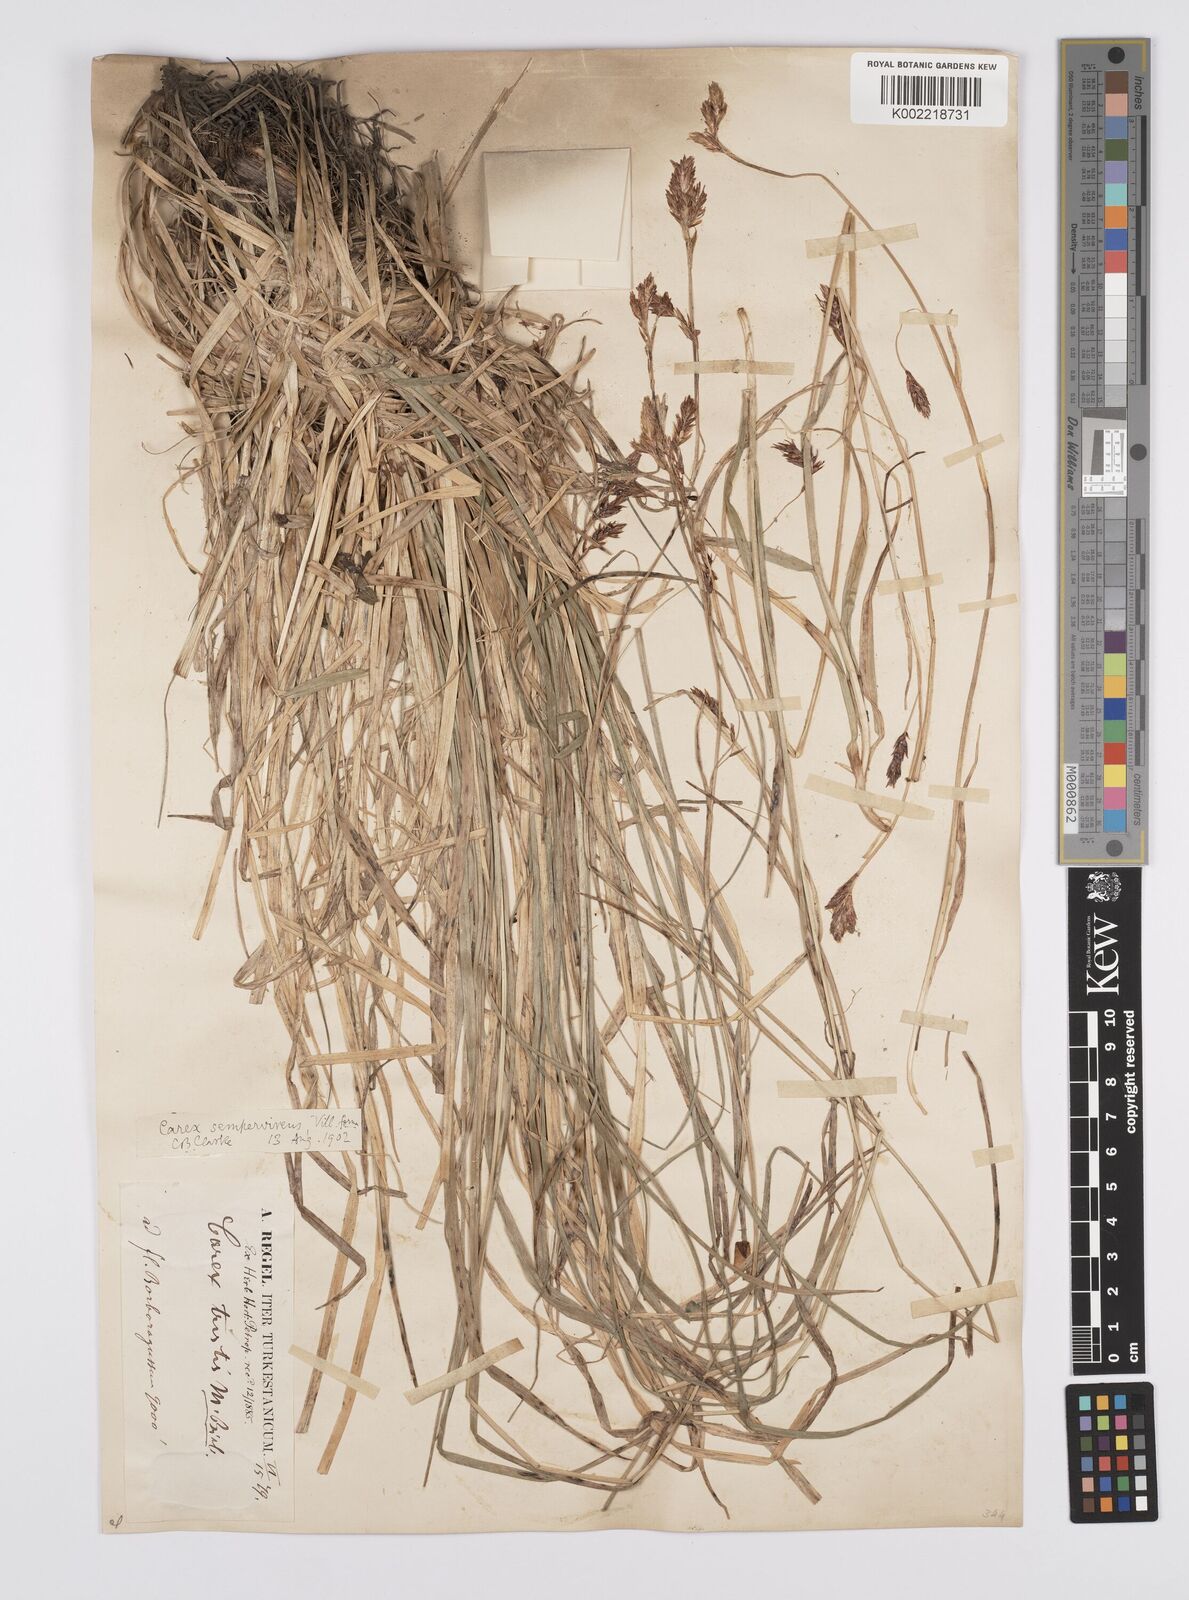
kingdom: Plantae
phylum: Tracheophyta
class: Liliopsida
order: Poales
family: Cyperaceae
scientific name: Cyperaceae
